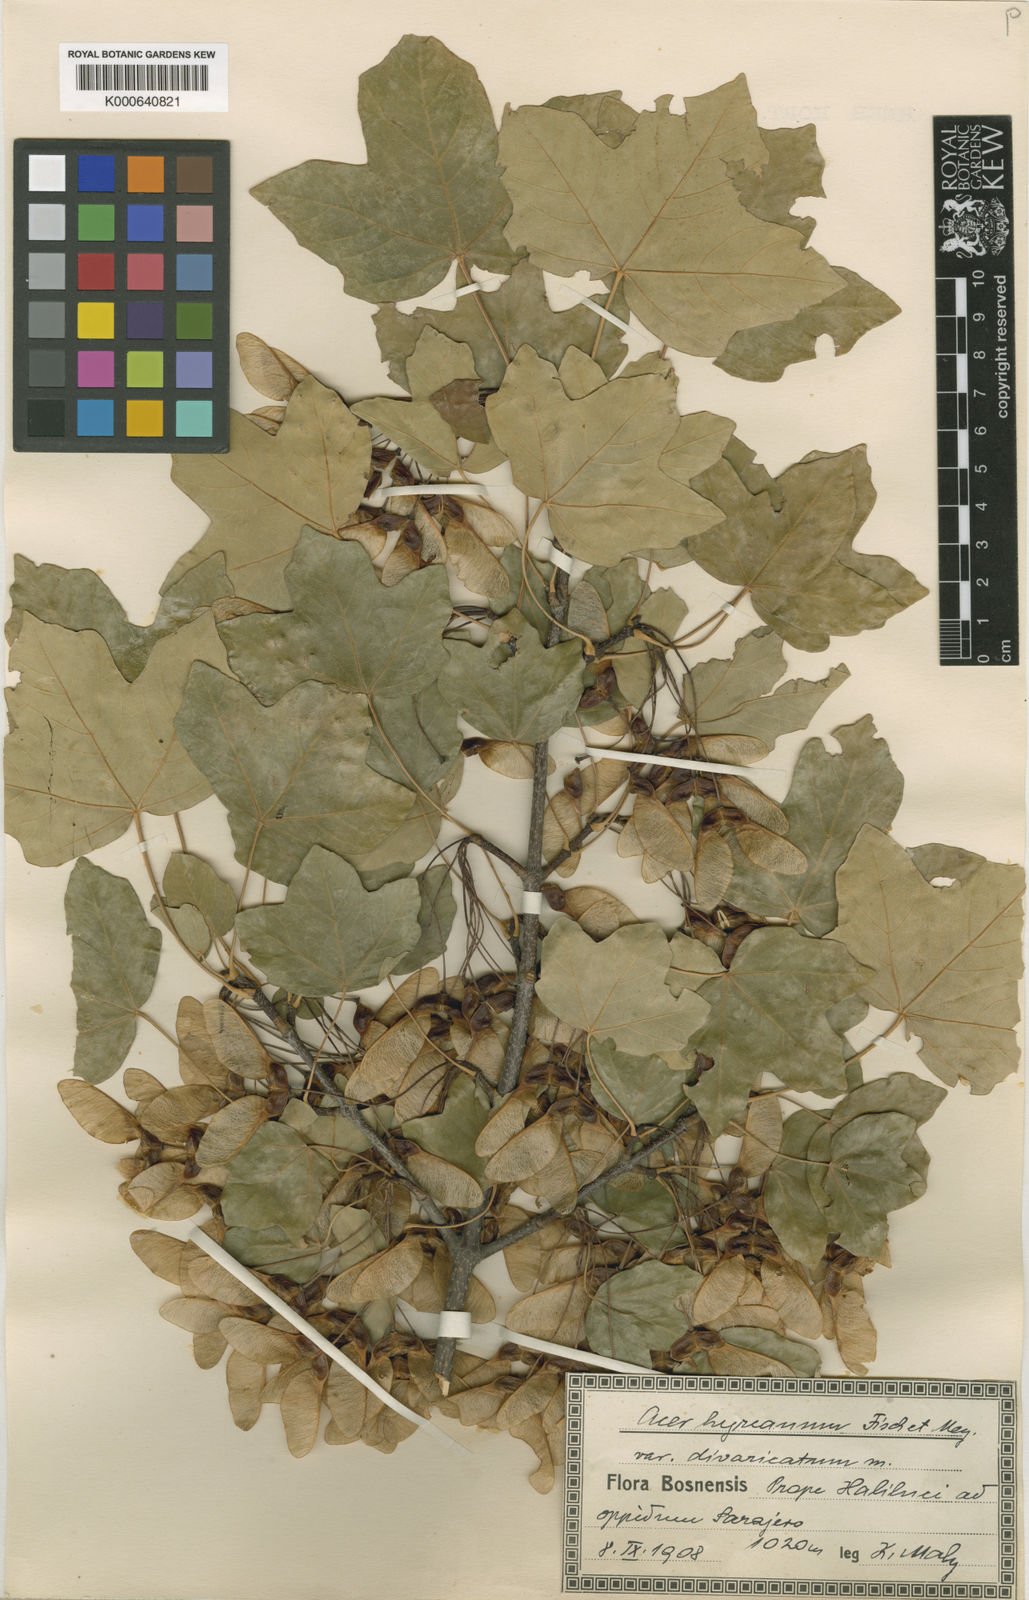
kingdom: Plantae
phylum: Tracheophyta
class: Magnoliopsida
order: Sapindales
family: Sapindaceae
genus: Acer
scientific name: Acer hyrcanum
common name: Balkan maple
